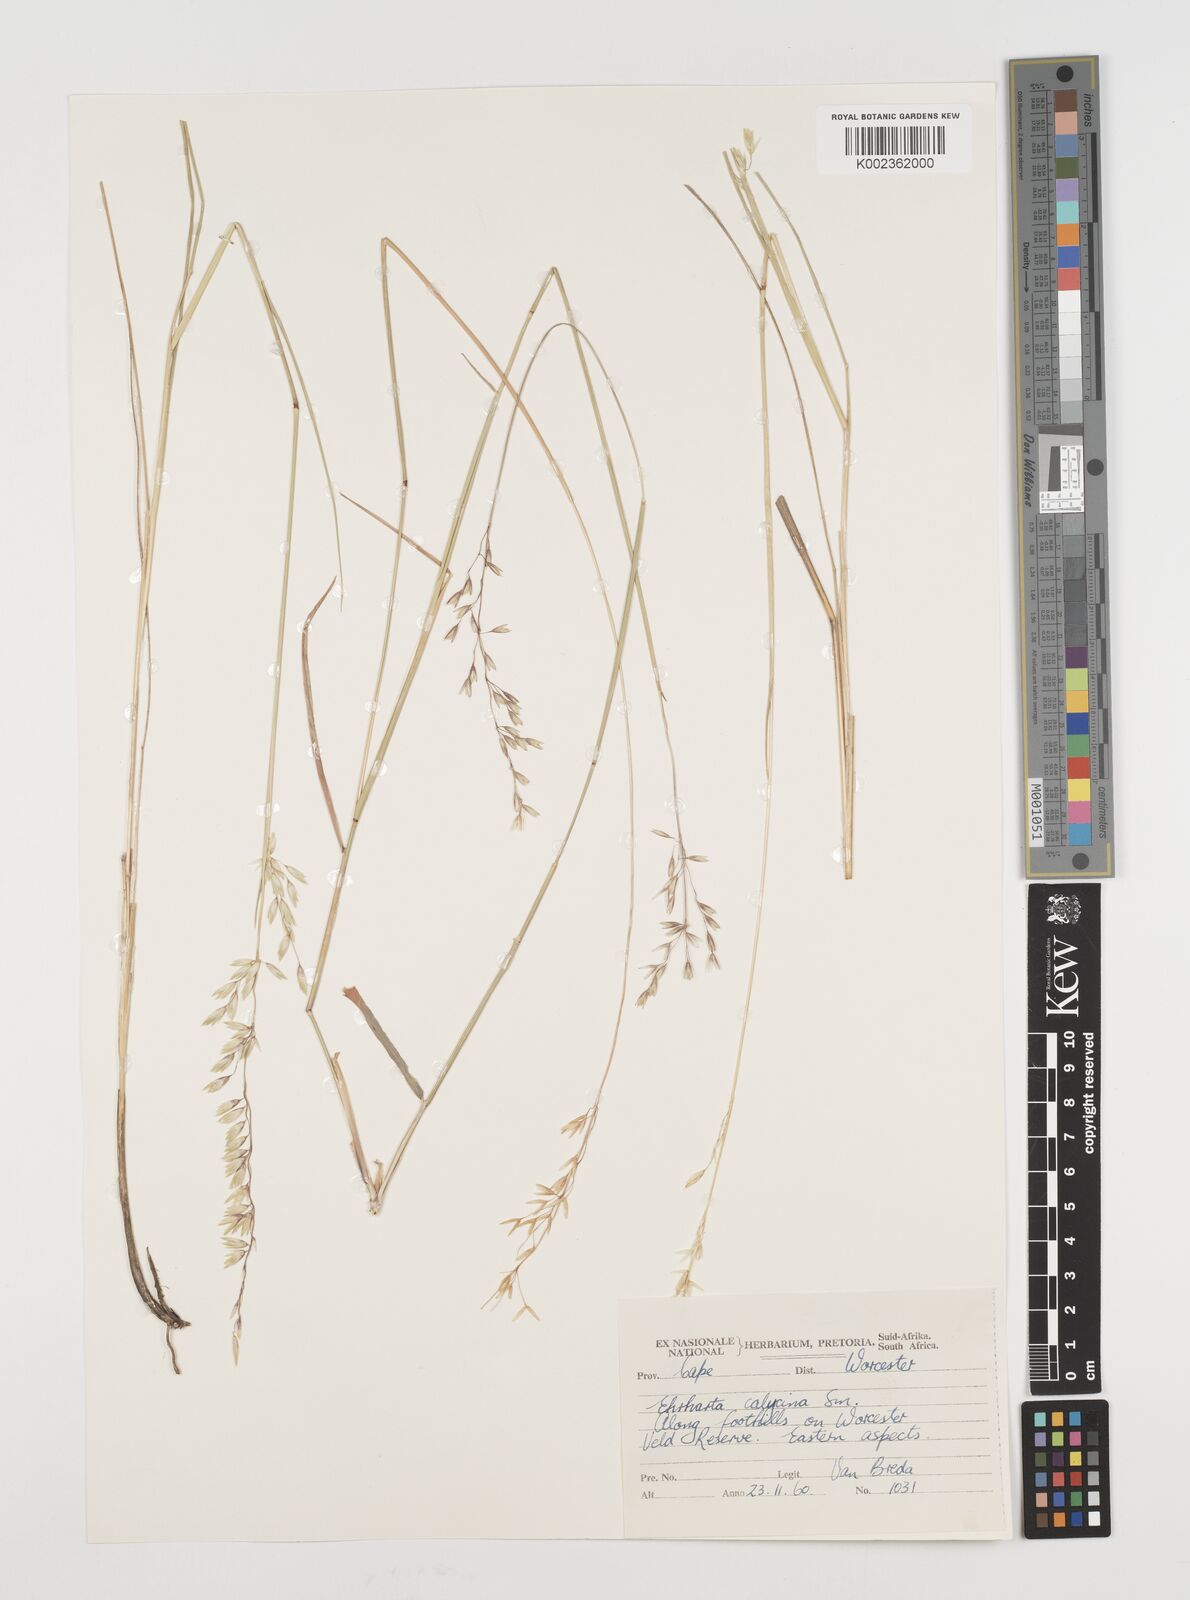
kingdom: Plantae
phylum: Tracheophyta
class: Liliopsida
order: Poales
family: Poaceae
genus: Ehrharta
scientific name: Ehrharta calycina
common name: Perennial veldtgrass
